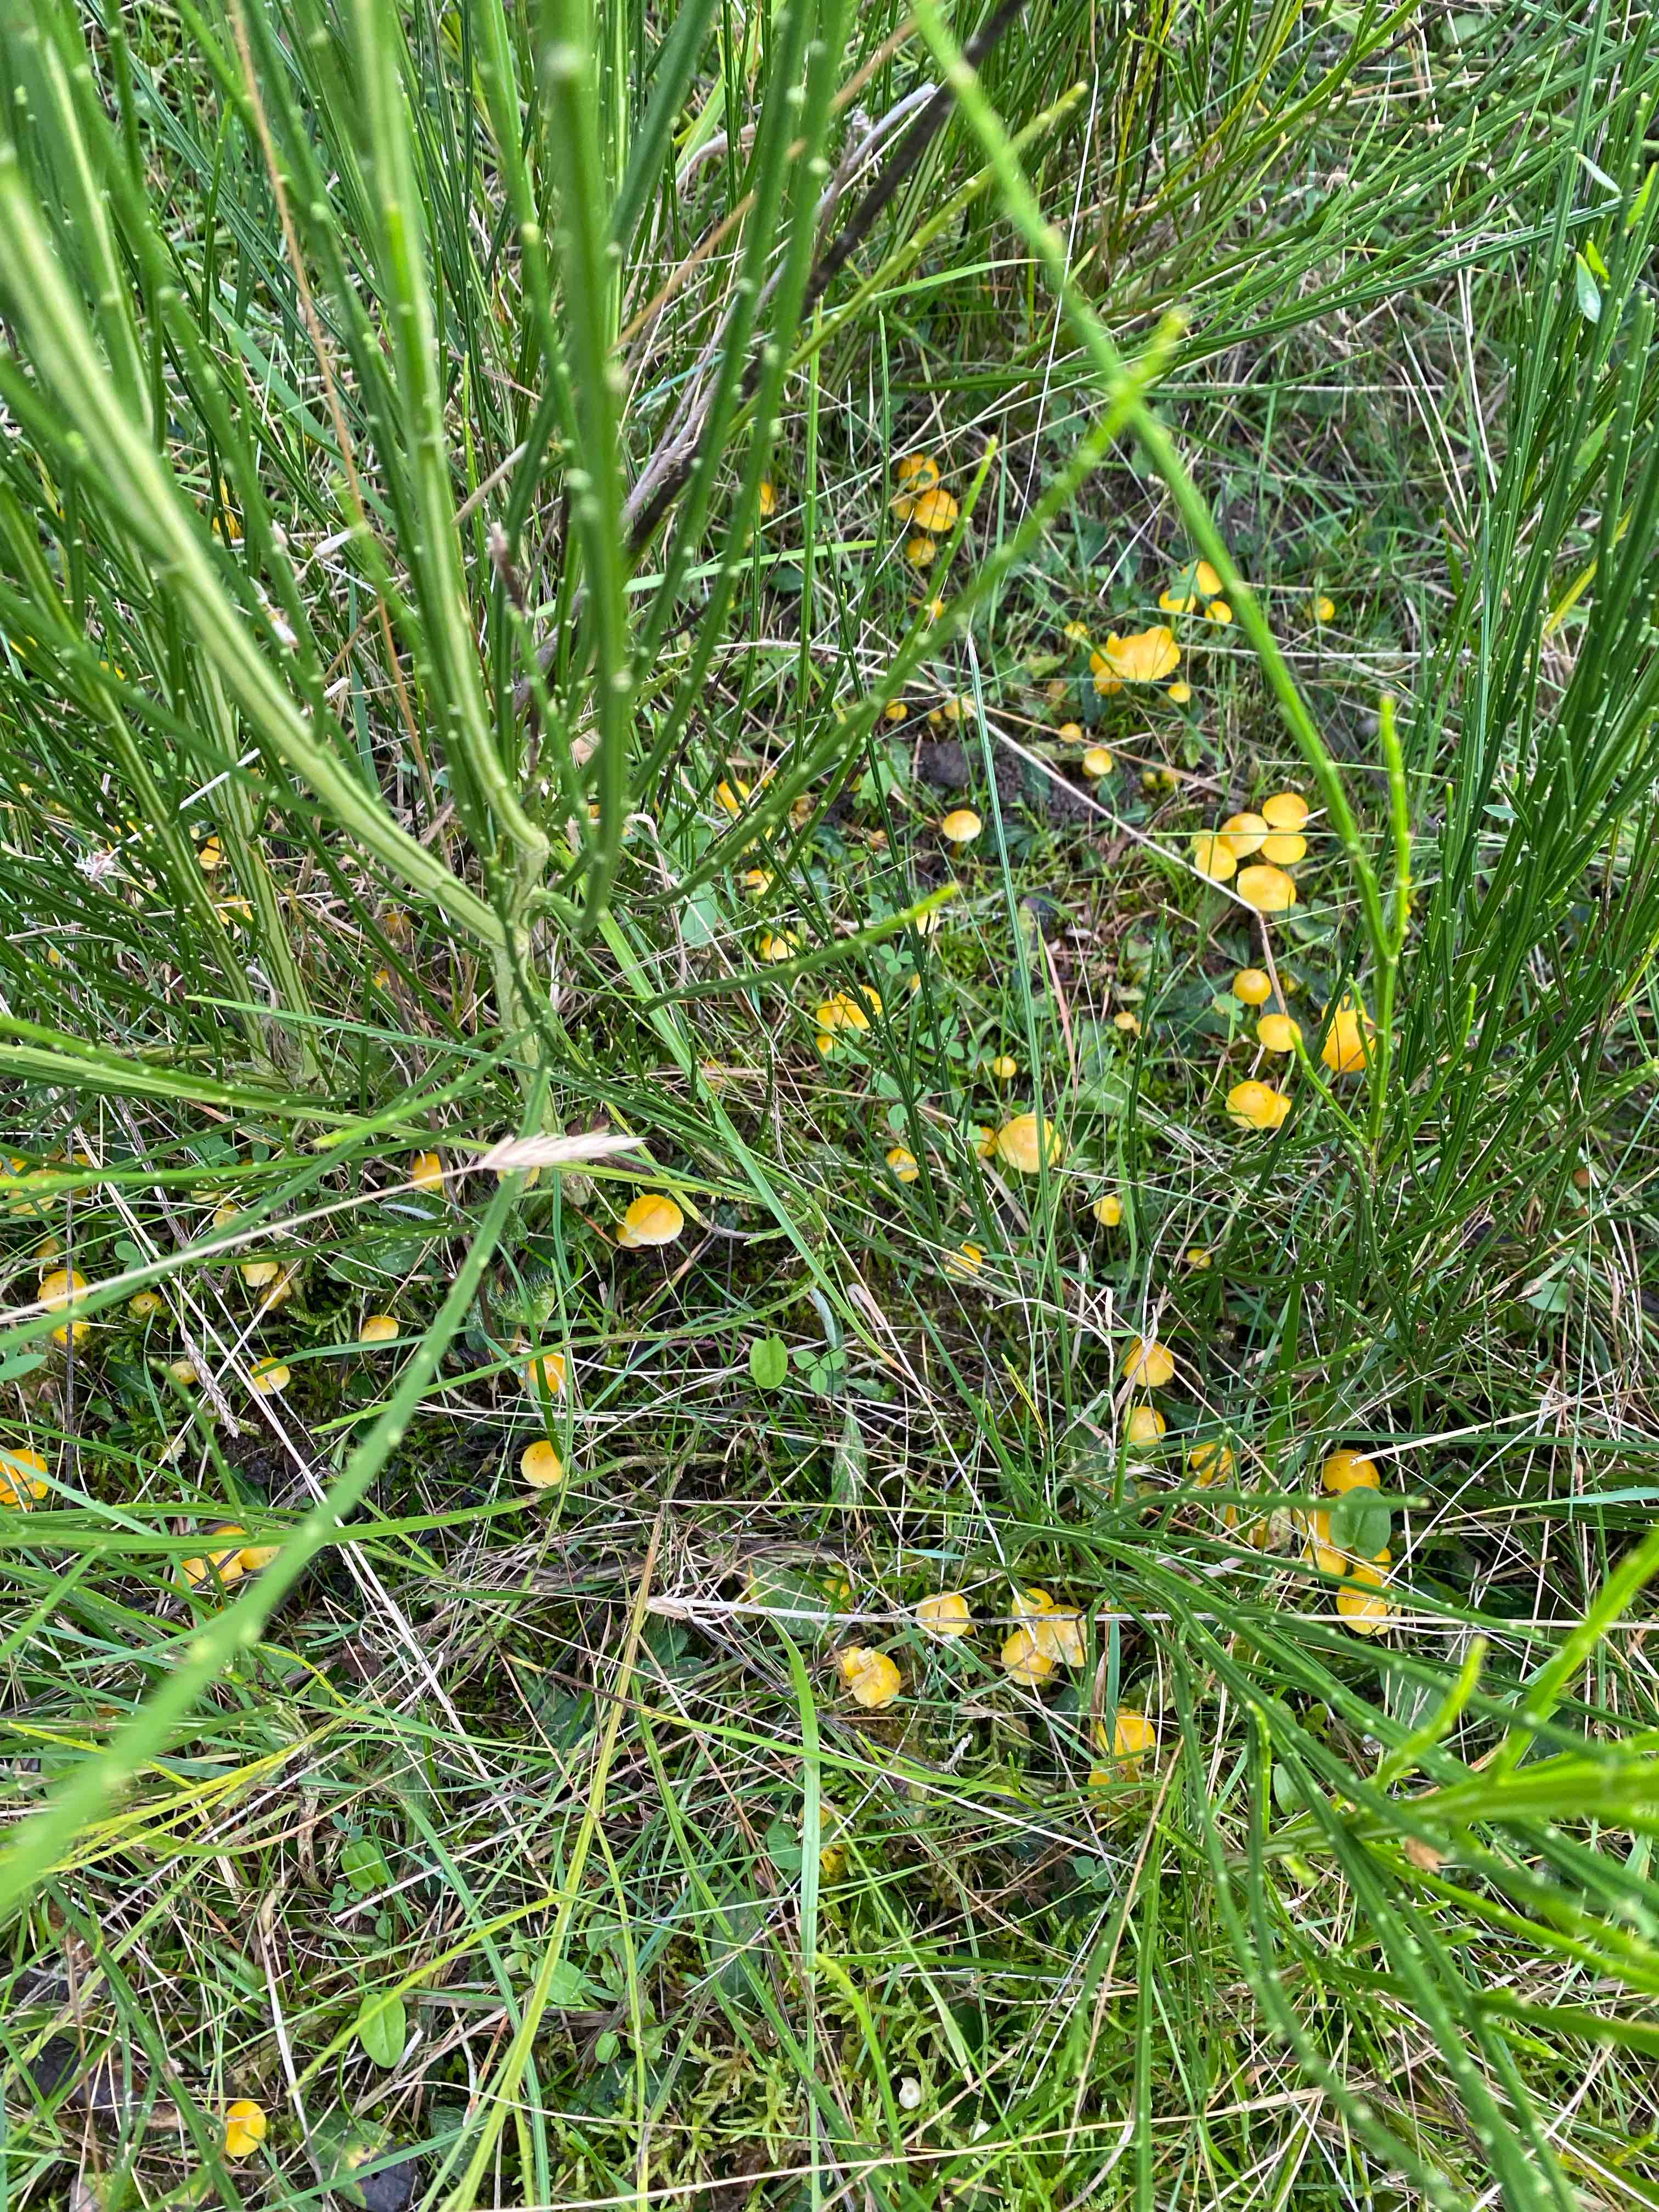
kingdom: Fungi
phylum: Basidiomycota
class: Agaricomycetes
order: Agaricales
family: Hygrophoraceae
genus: Hygrocybe
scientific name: Hygrocybe ceracea
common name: voksgul vokshat
